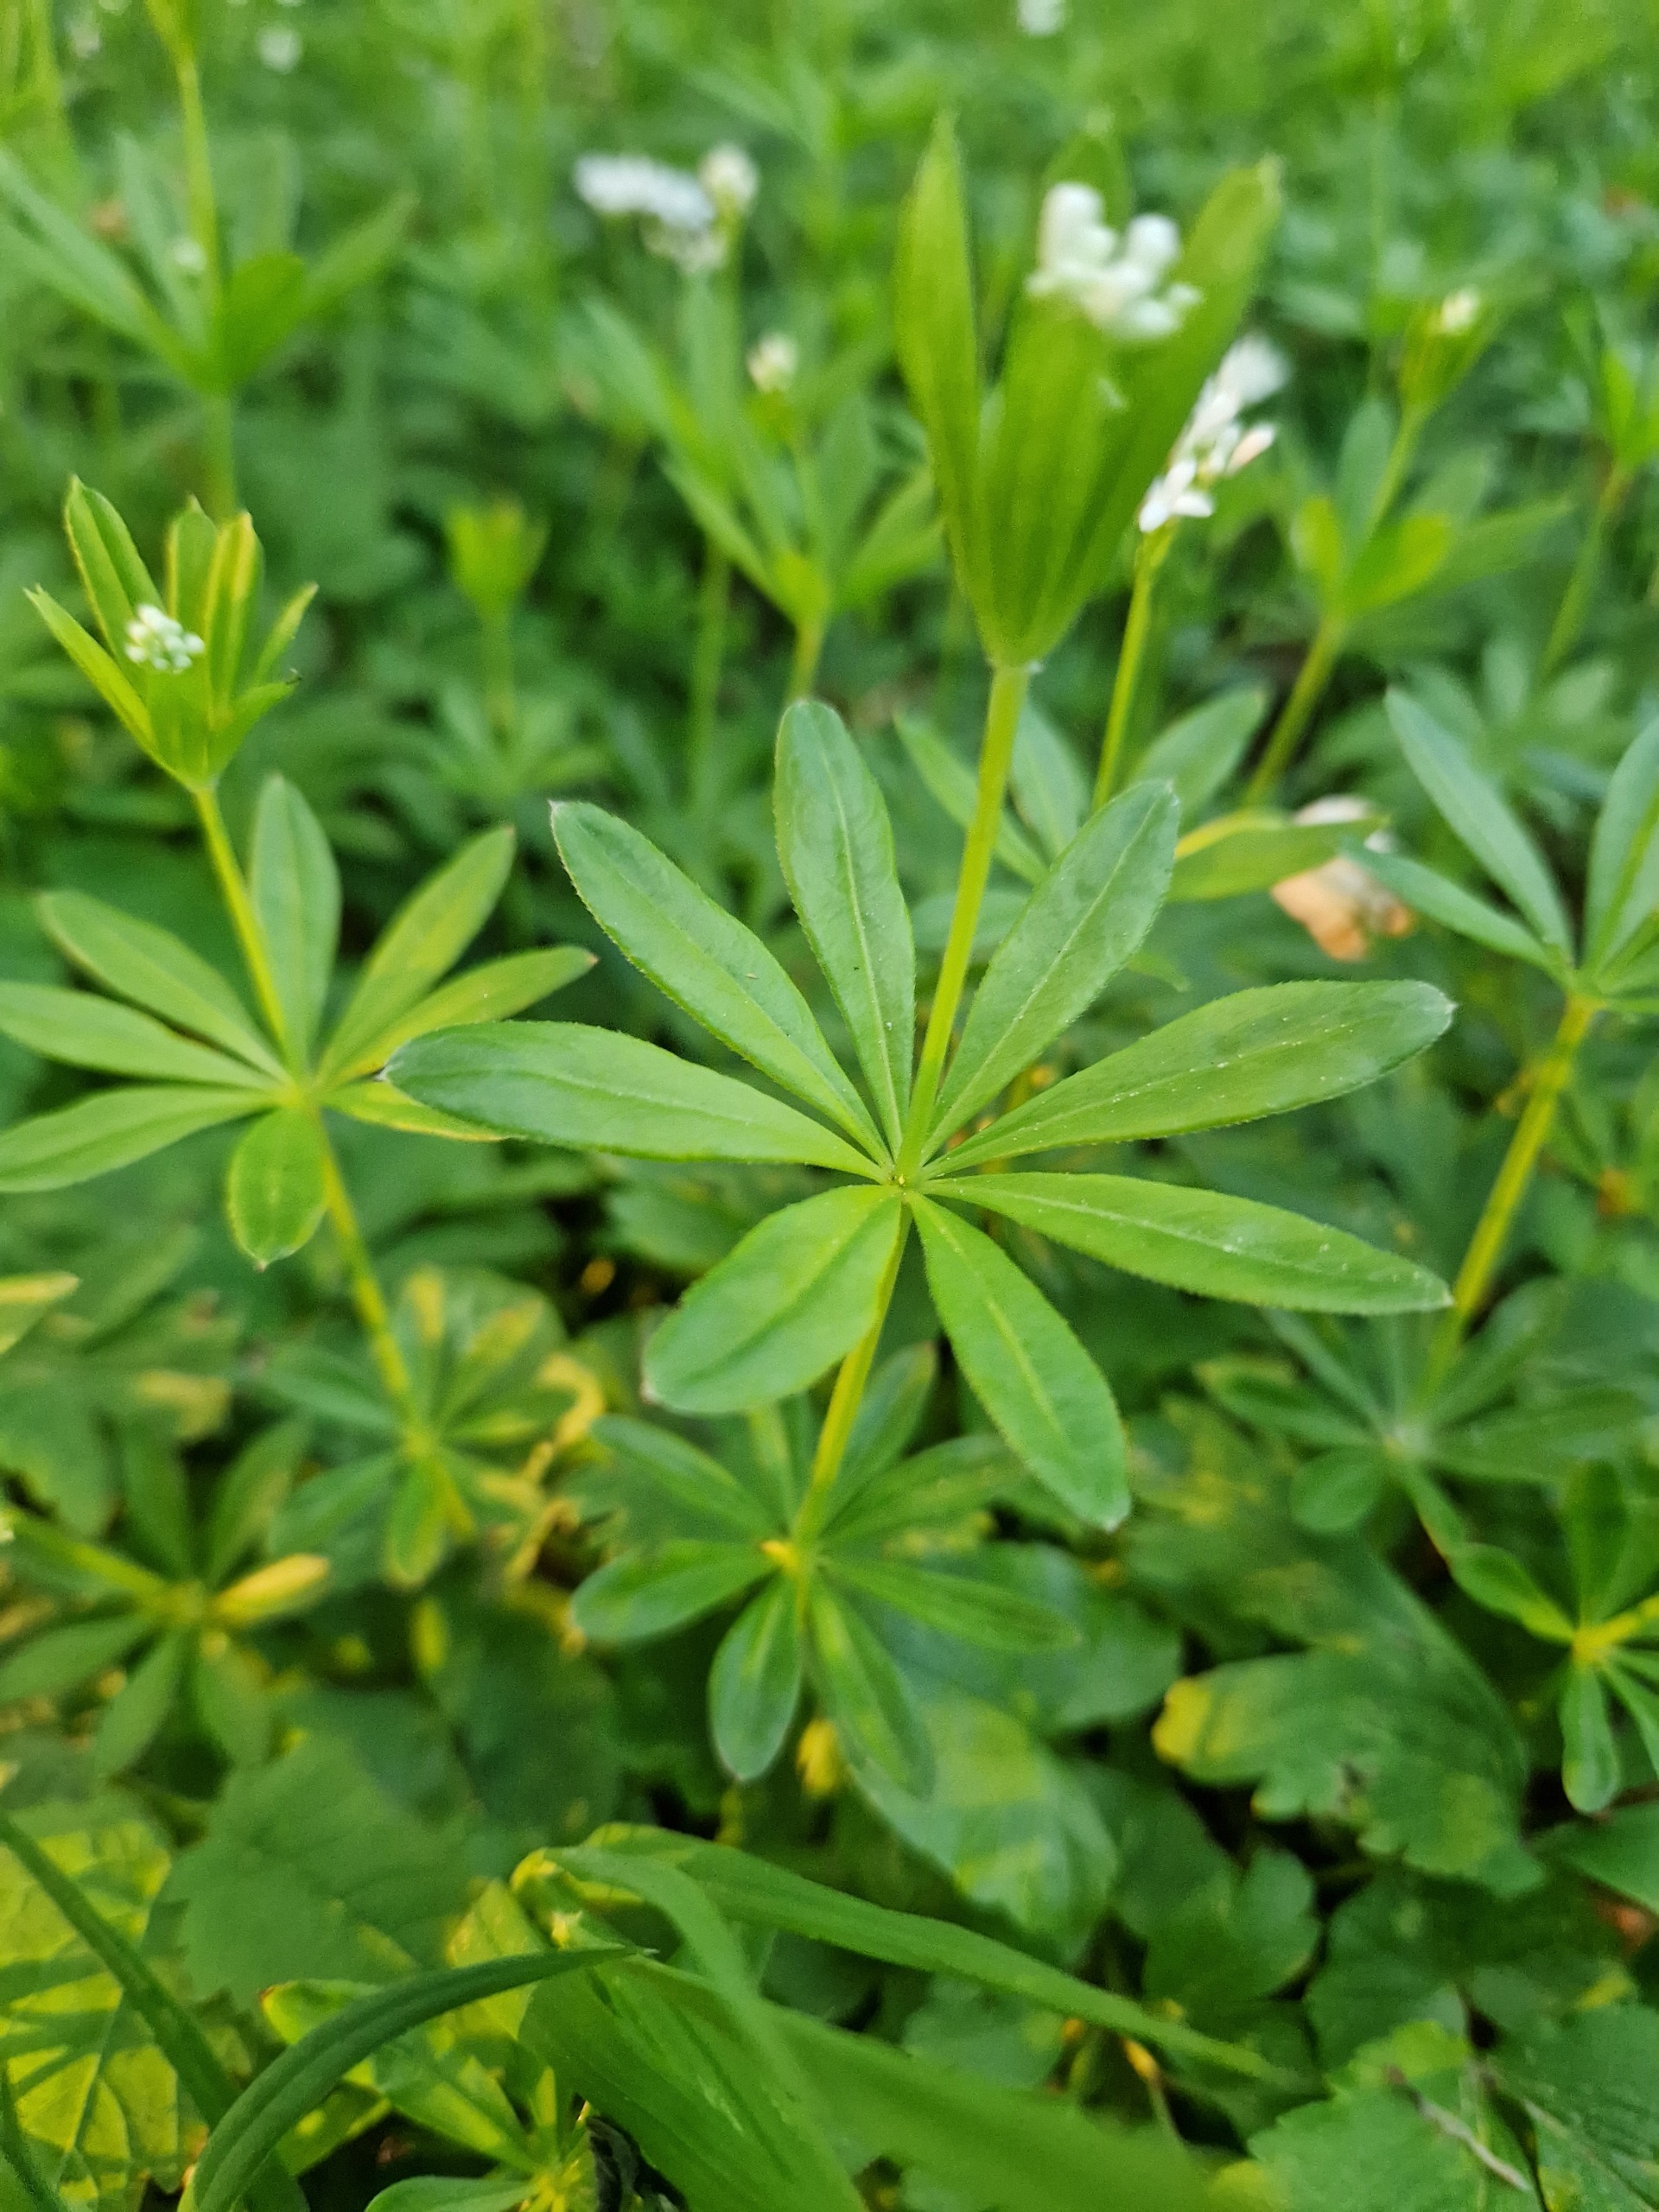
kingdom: Plantae
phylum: Tracheophyta
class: Magnoliopsida
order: Gentianales
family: Rubiaceae
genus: Galium
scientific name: Galium odoratum
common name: Skovmærke
